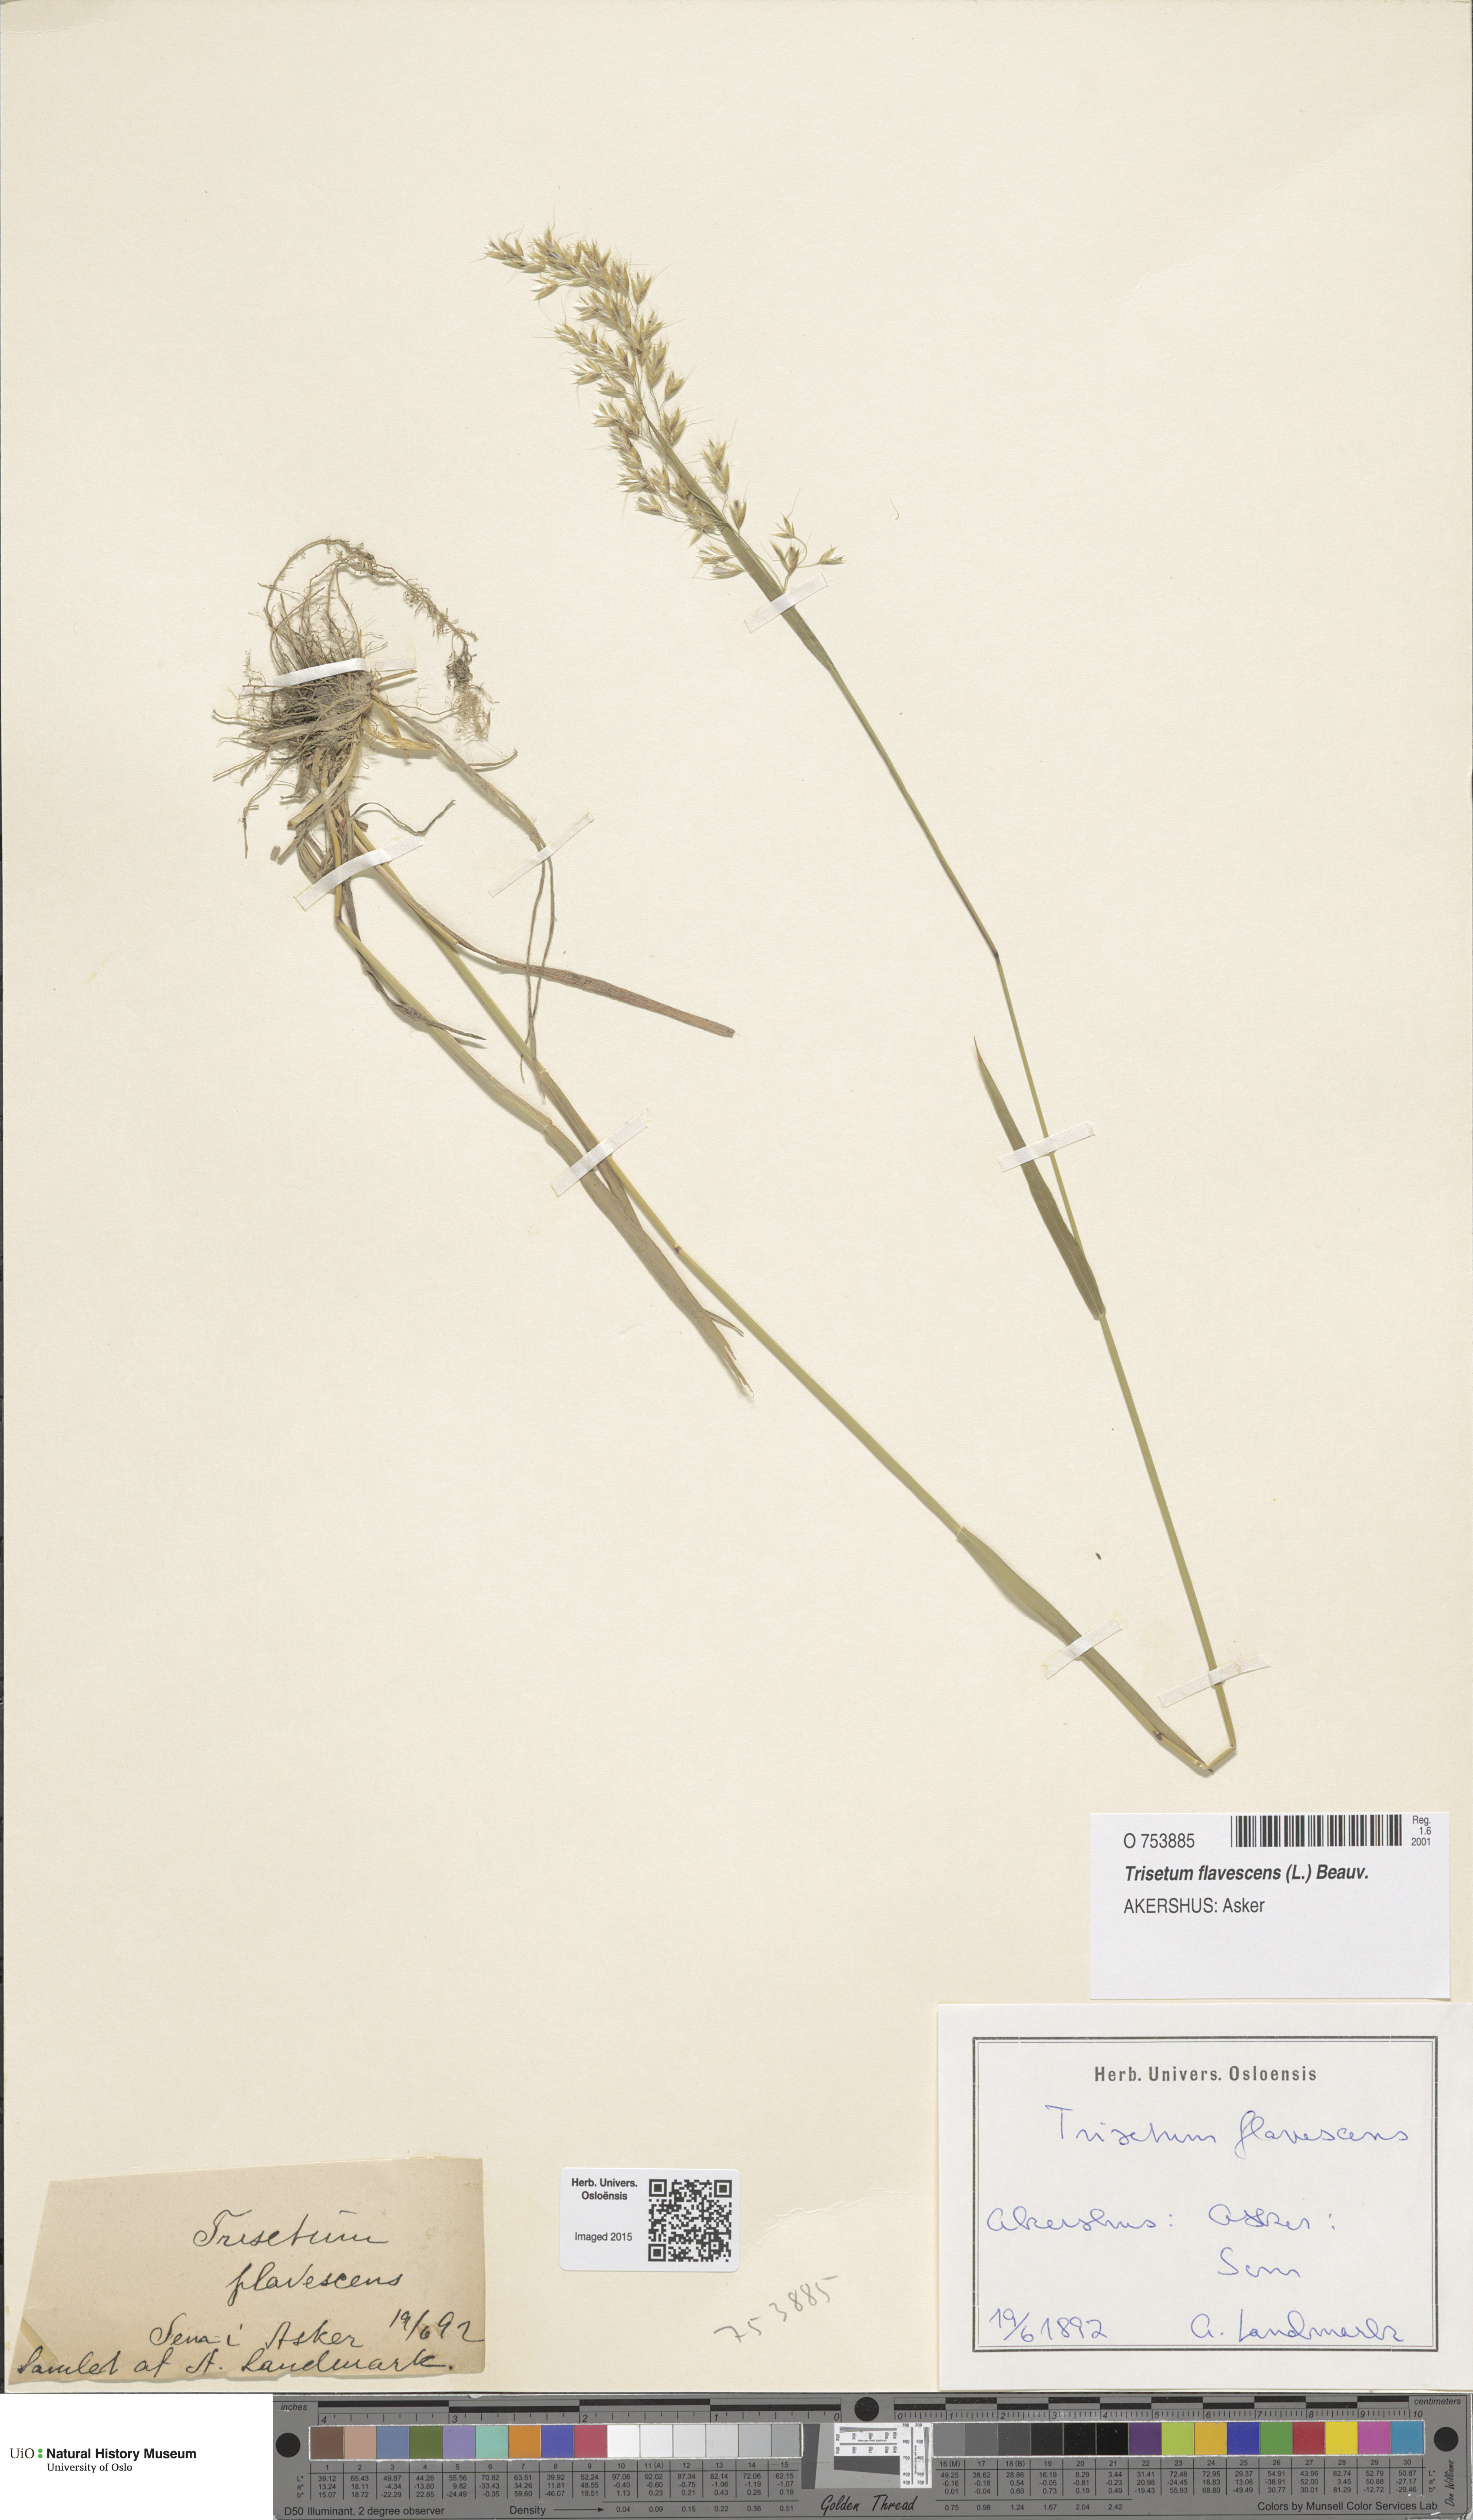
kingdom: Plantae
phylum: Tracheophyta
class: Liliopsida
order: Poales
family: Poaceae
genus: Trisetum
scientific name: Trisetum flavescens
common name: Yellow oat-grass
